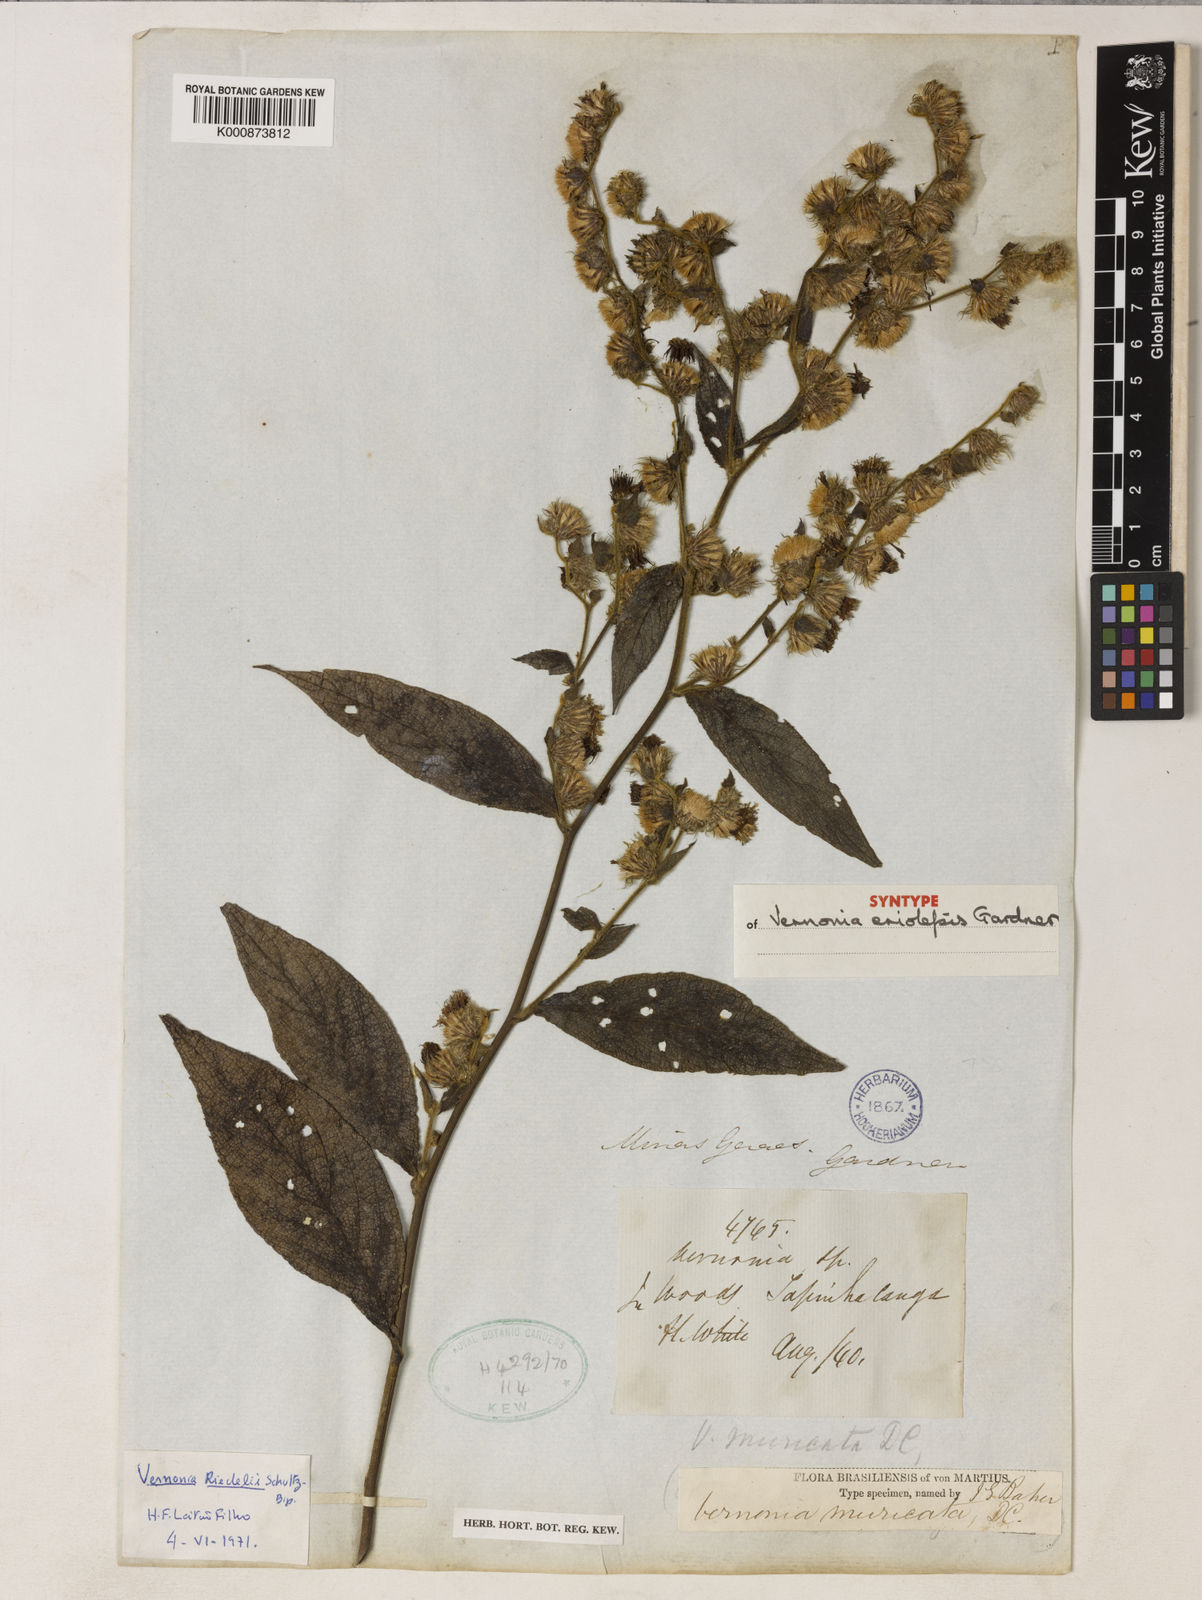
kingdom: Plantae
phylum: Tracheophyta
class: Magnoliopsida
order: Asterales
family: Asteraceae
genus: Lepidaploa
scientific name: Lepidaploa muricata
